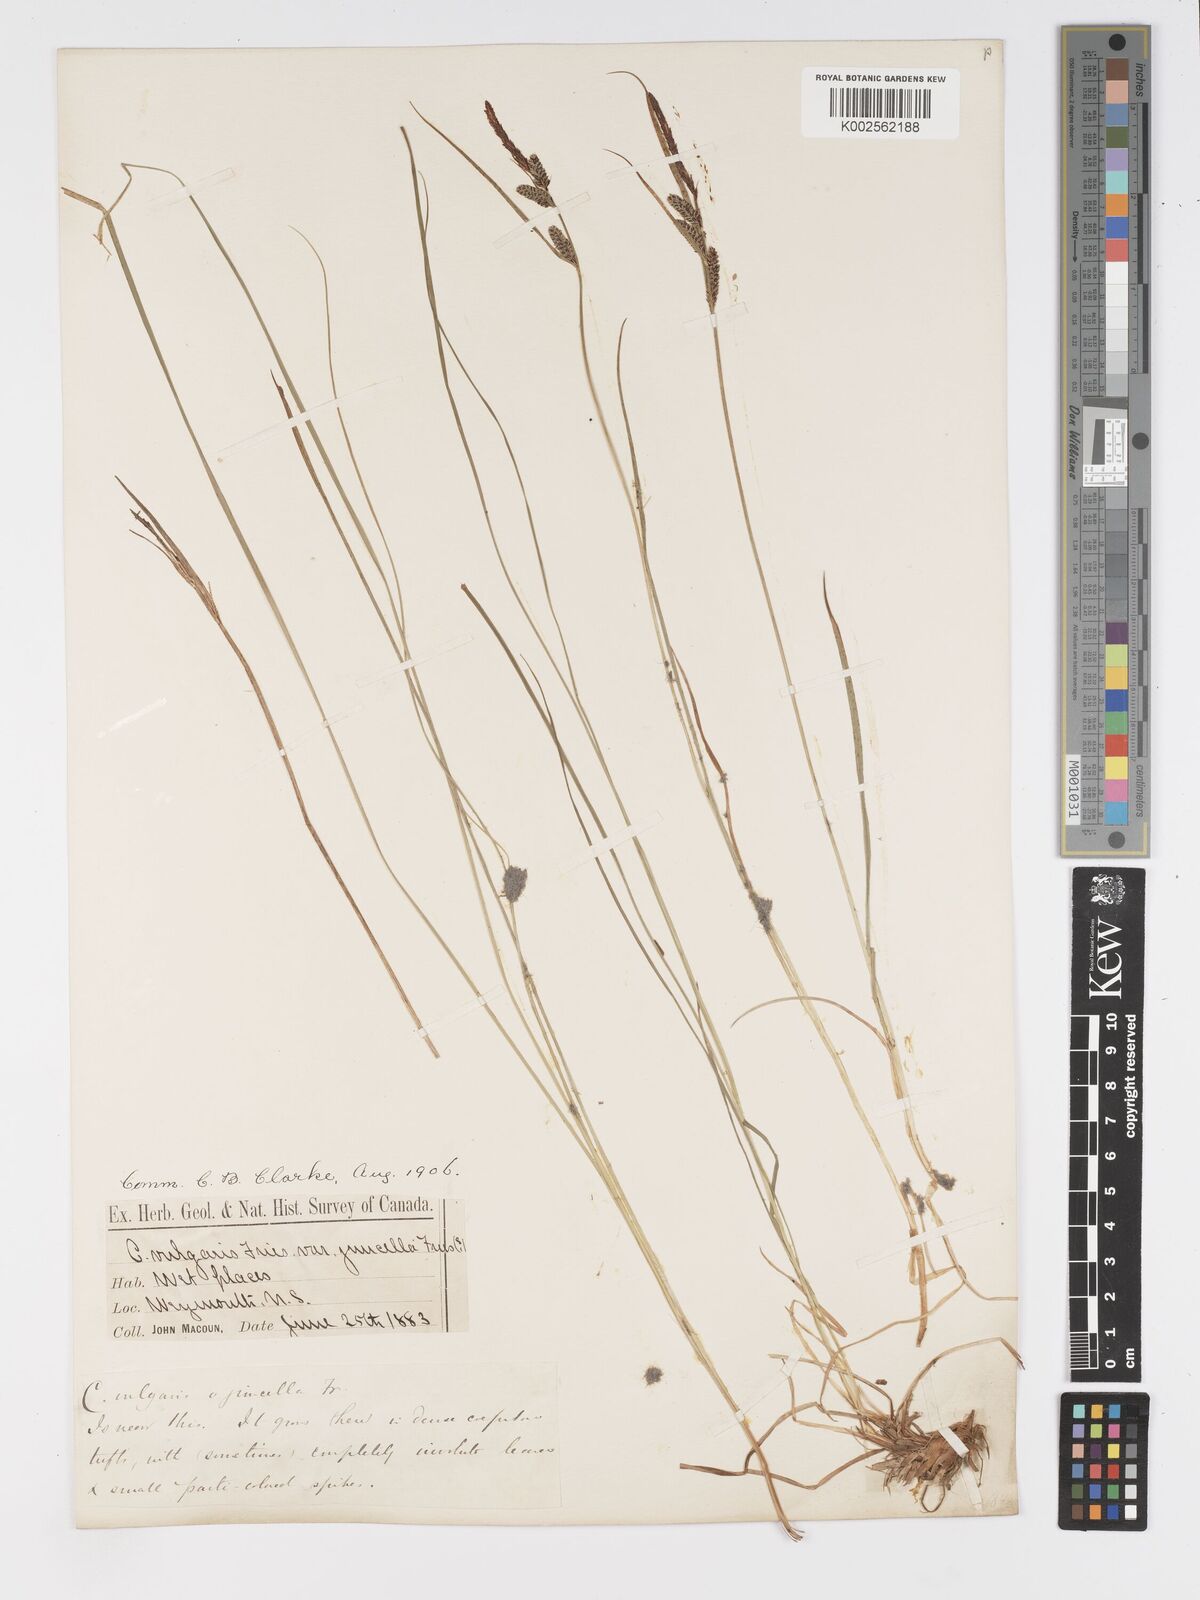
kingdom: Plantae
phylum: Tracheophyta
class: Liliopsida
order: Poales
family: Cyperaceae
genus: Carex
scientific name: Carex nigra
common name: Common sedge
